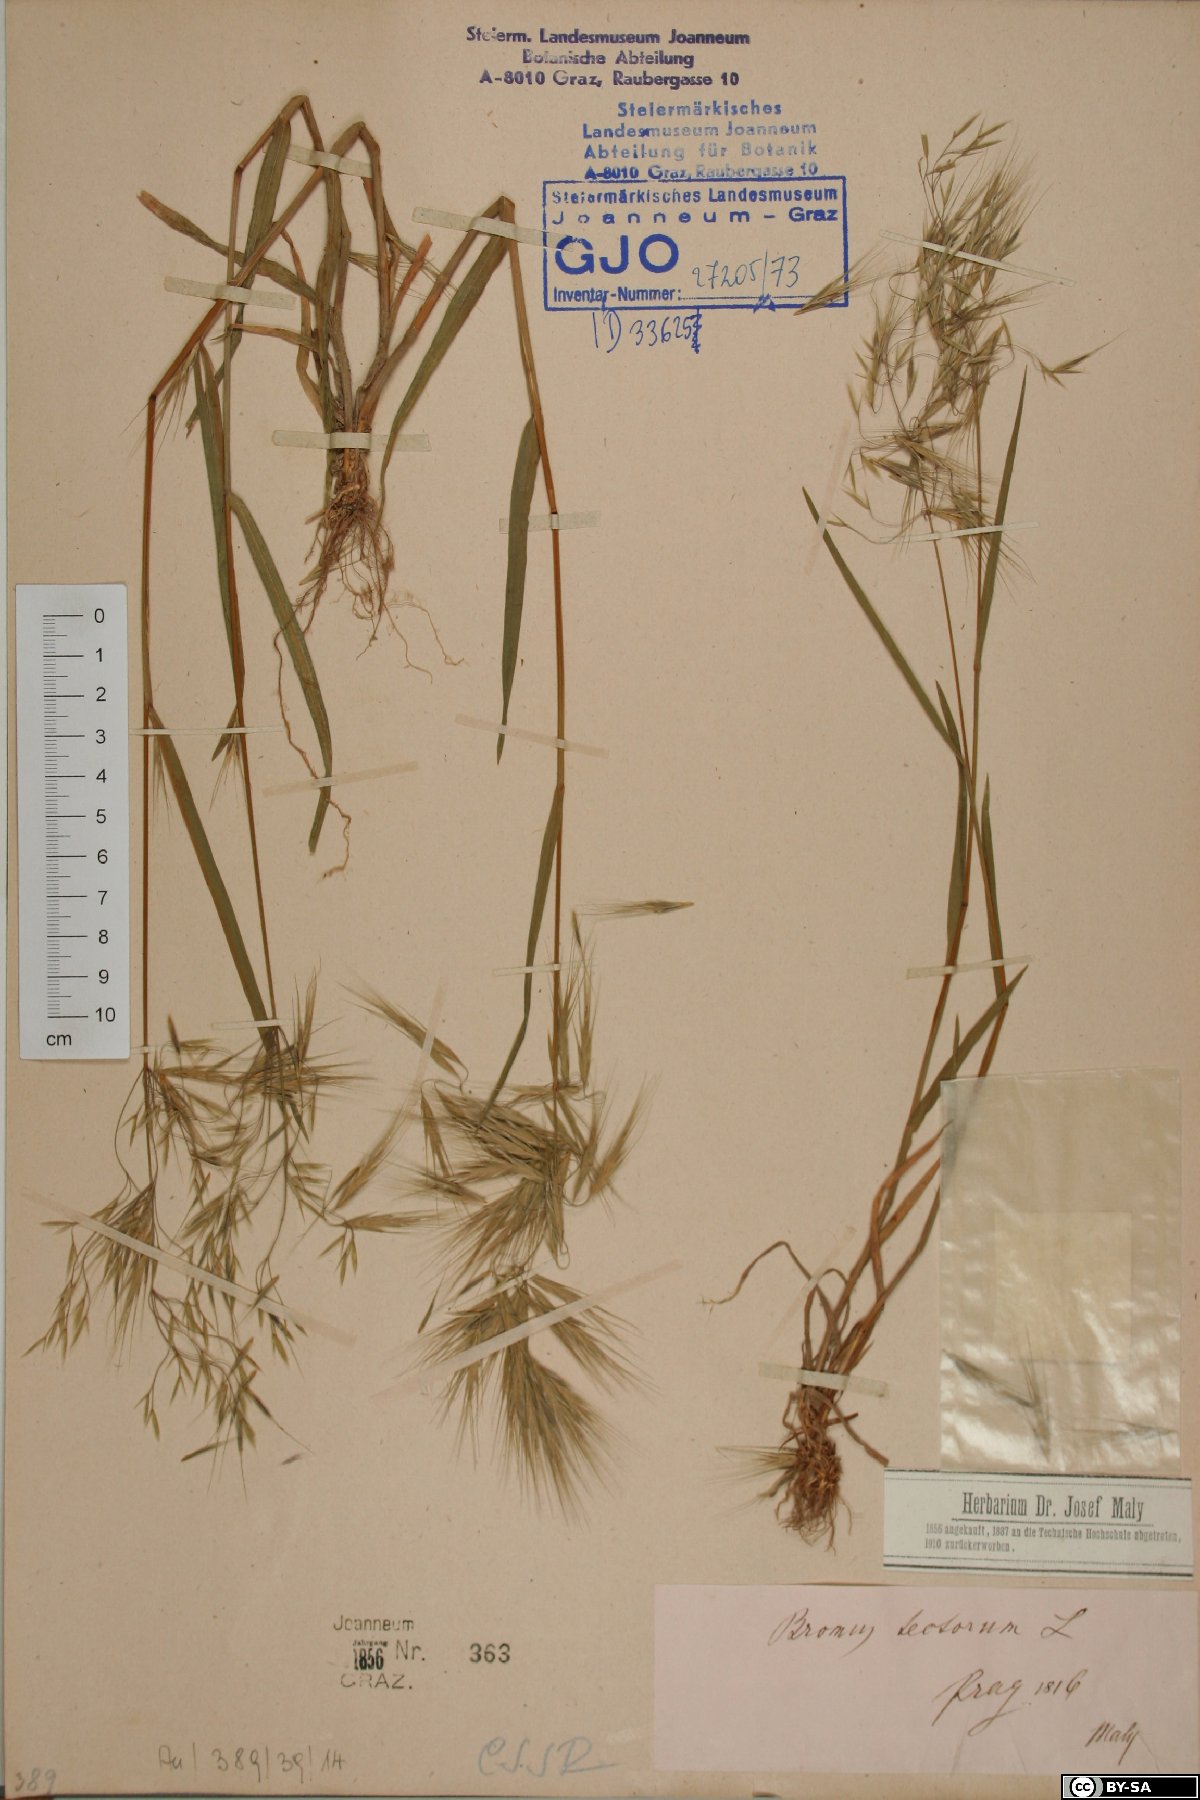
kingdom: Plantae
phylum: Tracheophyta
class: Liliopsida
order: Poales
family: Poaceae
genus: Bromus
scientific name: Bromus tectorum
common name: Cheatgrass
